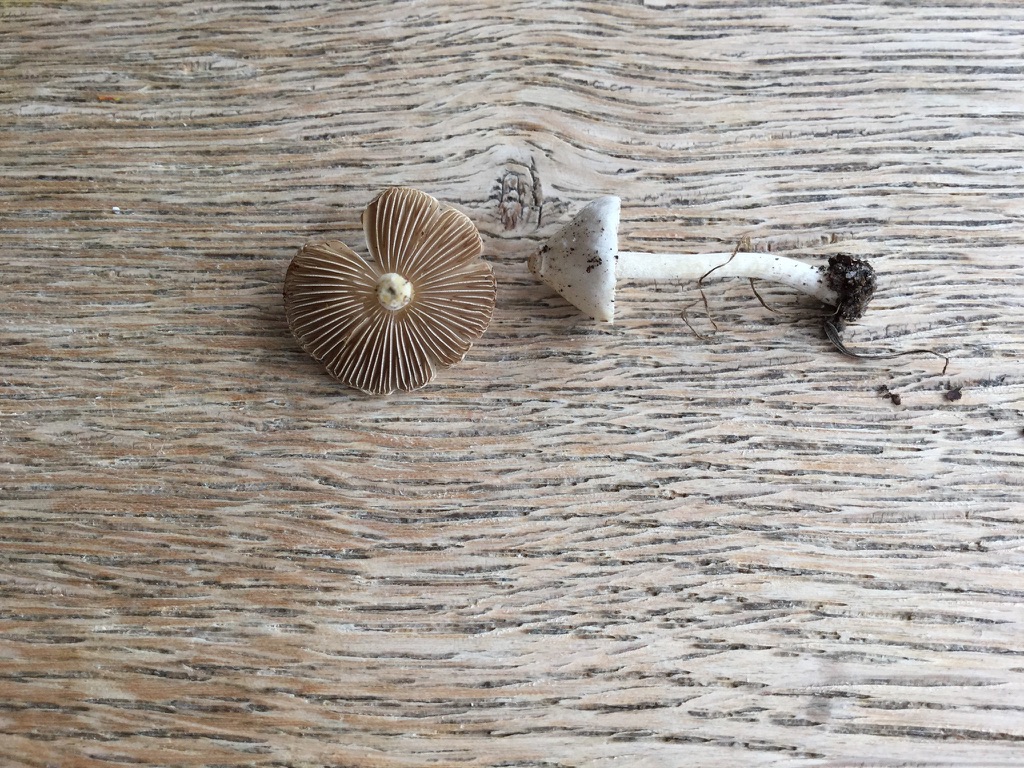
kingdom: Fungi
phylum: Basidiomycota
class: Agaricomycetes
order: Agaricales
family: Inocybaceae
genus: Inocybe
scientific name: Inocybe
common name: almindelig trævlhat
